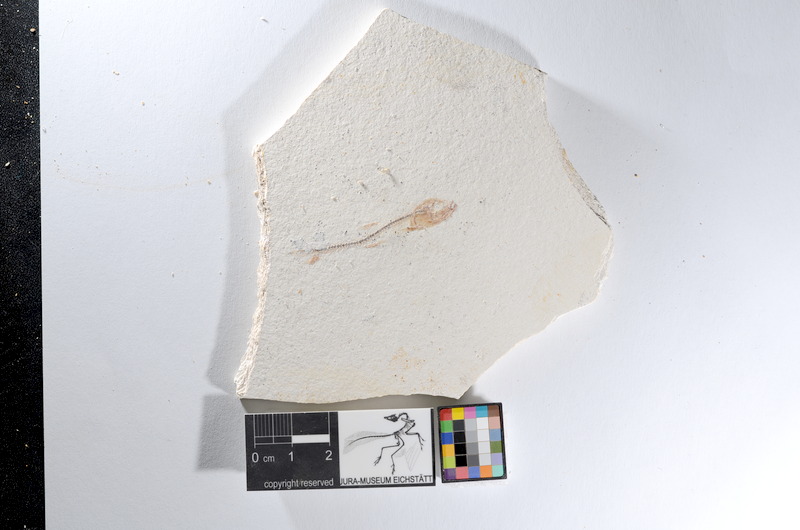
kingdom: Animalia
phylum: Chordata
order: Salmoniformes
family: Orthogonikleithridae
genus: Orthogonikleithrus
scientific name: Orthogonikleithrus hoelli
